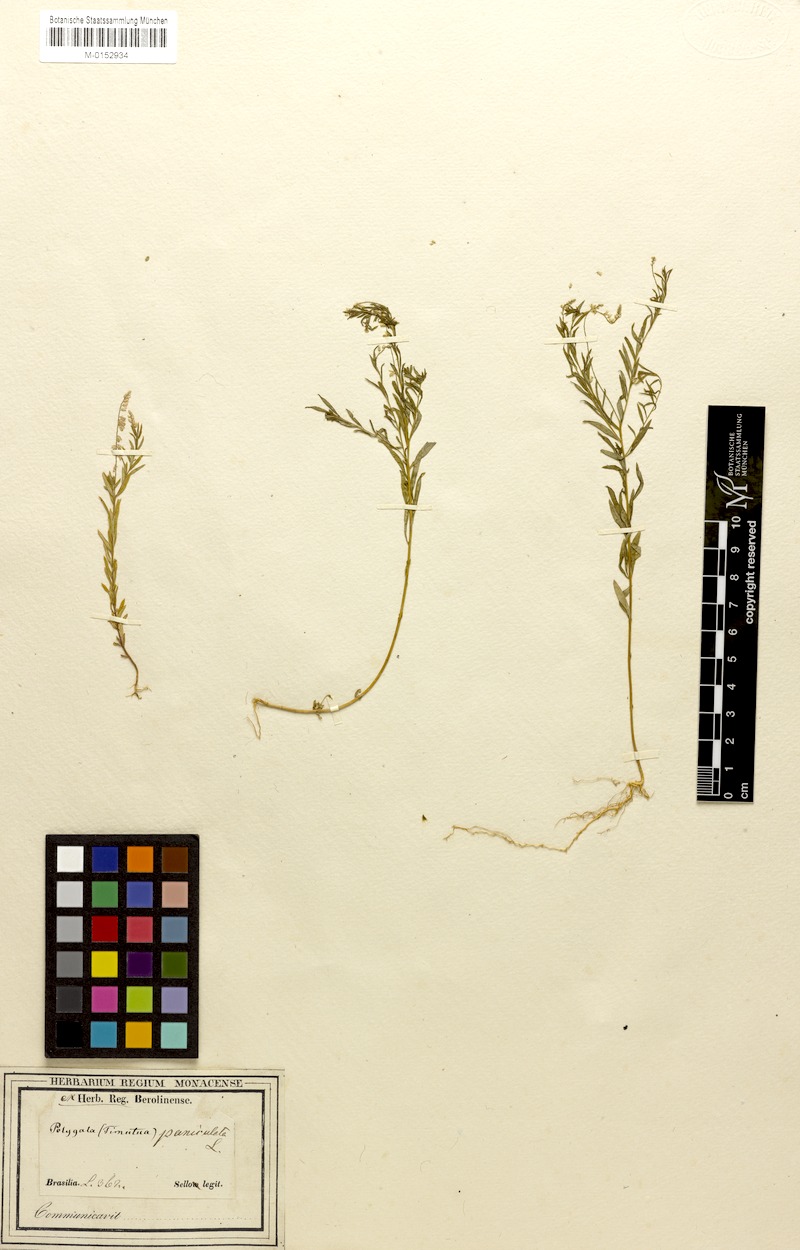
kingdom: Plantae
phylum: Tracheophyta
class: Magnoliopsida
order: Fabales
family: Polygalaceae
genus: Polygala
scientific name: Polygala paniculata
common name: Orosne
